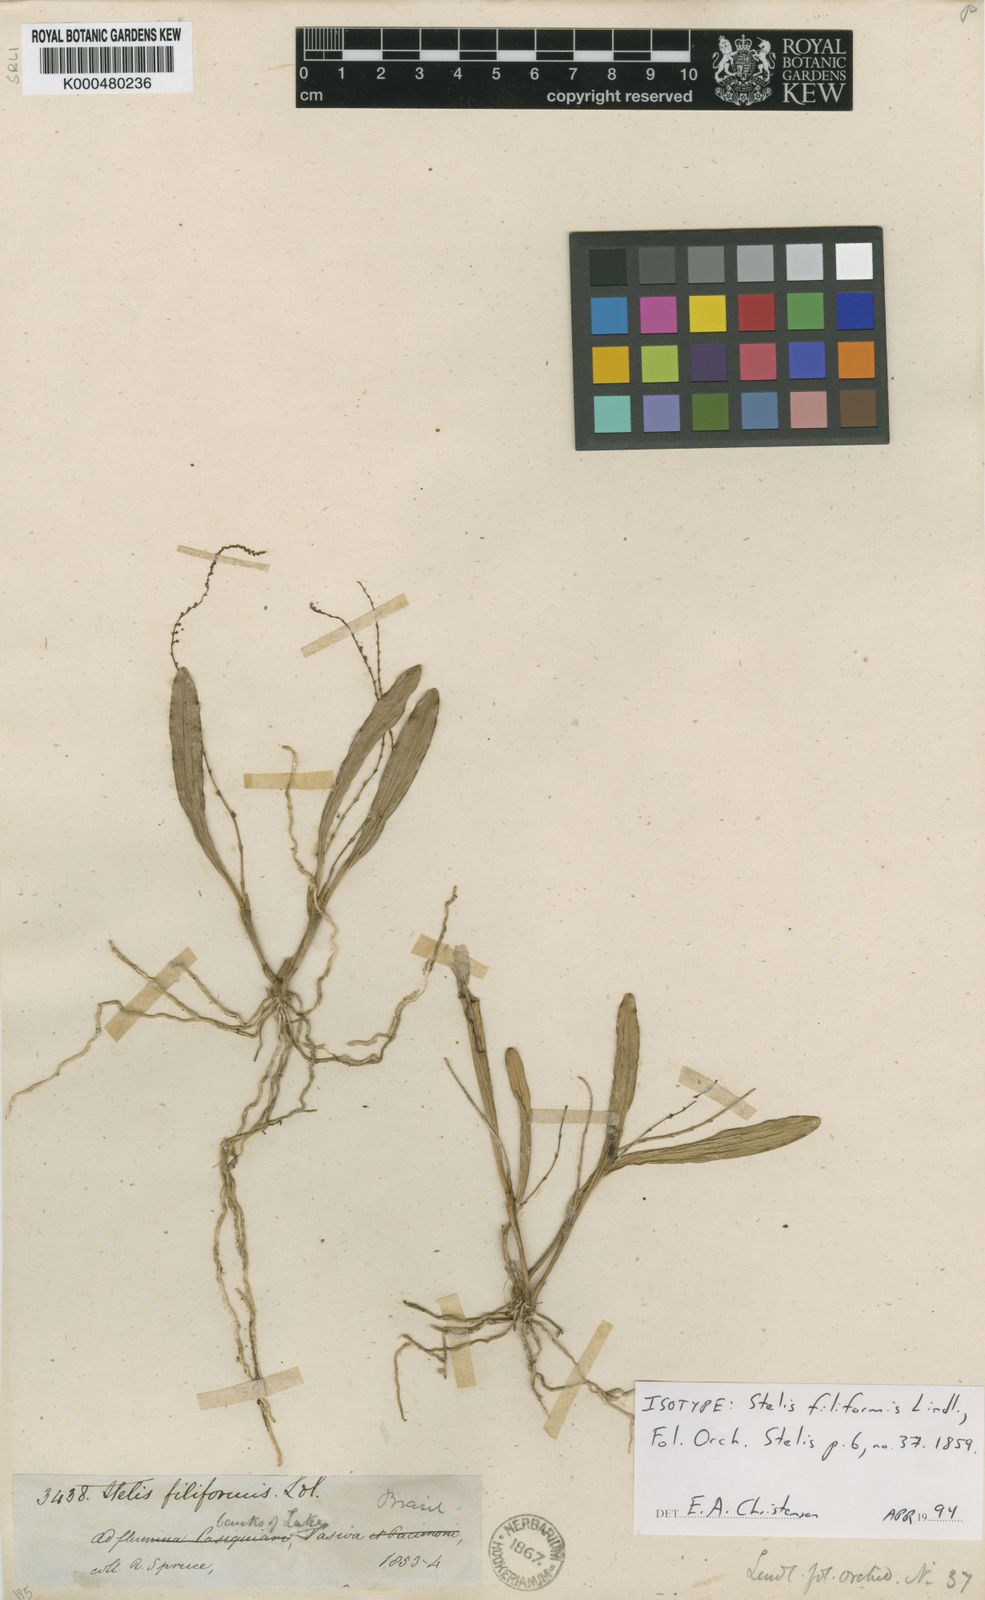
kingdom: Plantae
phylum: Tracheophyta
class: Liliopsida
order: Asparagales
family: Orchidaceae
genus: Stelis
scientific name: Stelis filiformis
